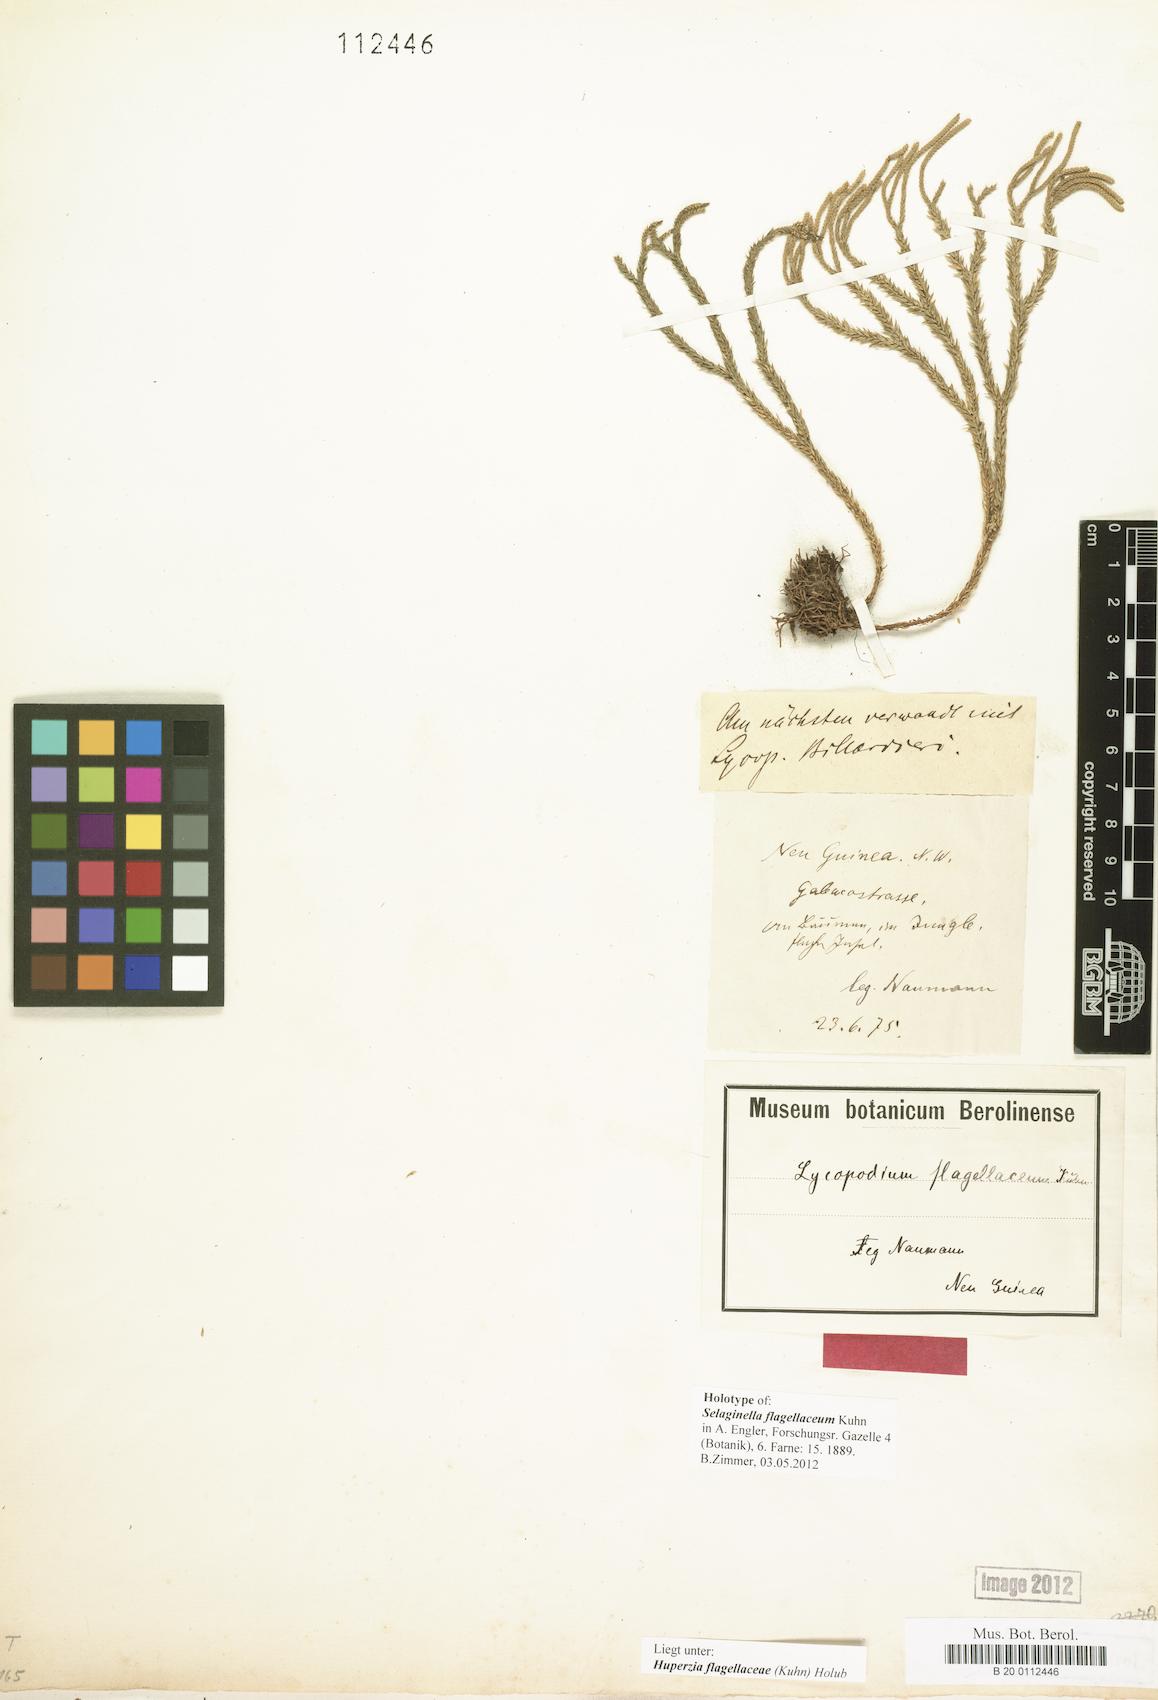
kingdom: Plantae
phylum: Tracheophyta
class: Lycopodiopsida
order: Lycopodiales
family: Lycopodiaceae
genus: Phlegmariurus
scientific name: Phlegmariurus flagellaceus
